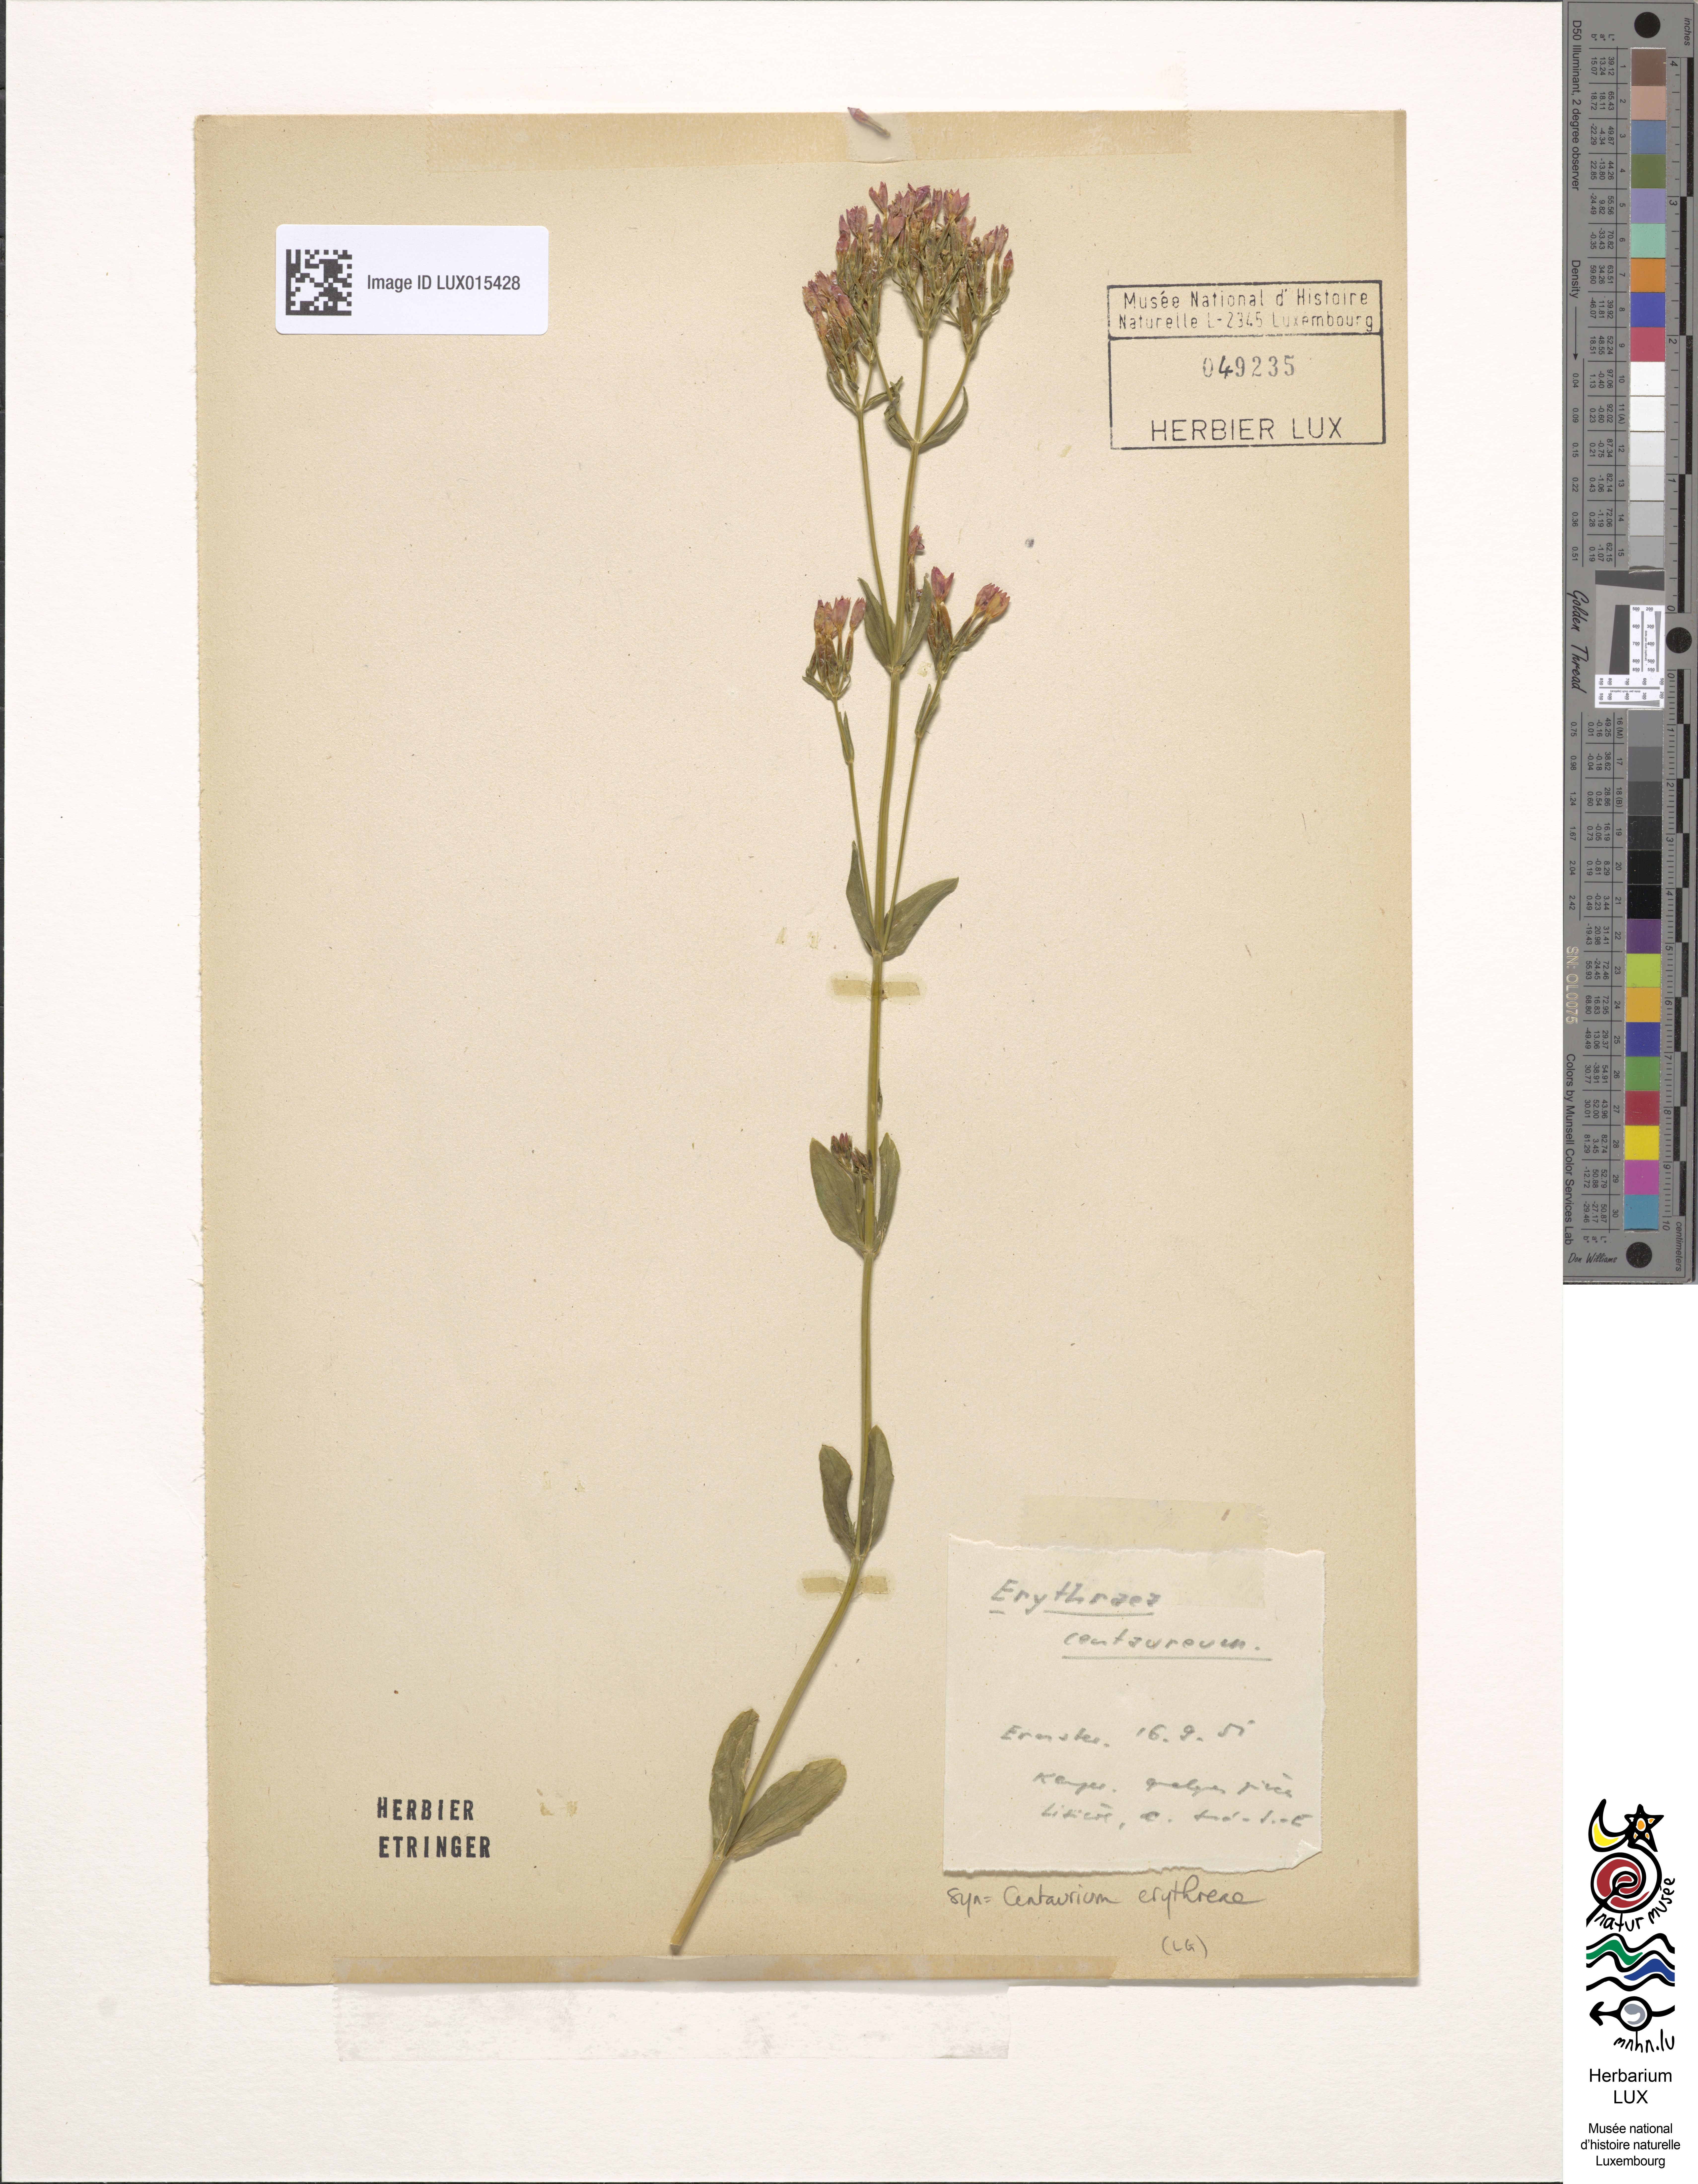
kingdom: Plantae
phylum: Tracheophyta
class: Magnoliopsida
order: Gentianales
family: Gentianaceae
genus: Centaurium
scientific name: Centaurium erythraea
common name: Common centaury
